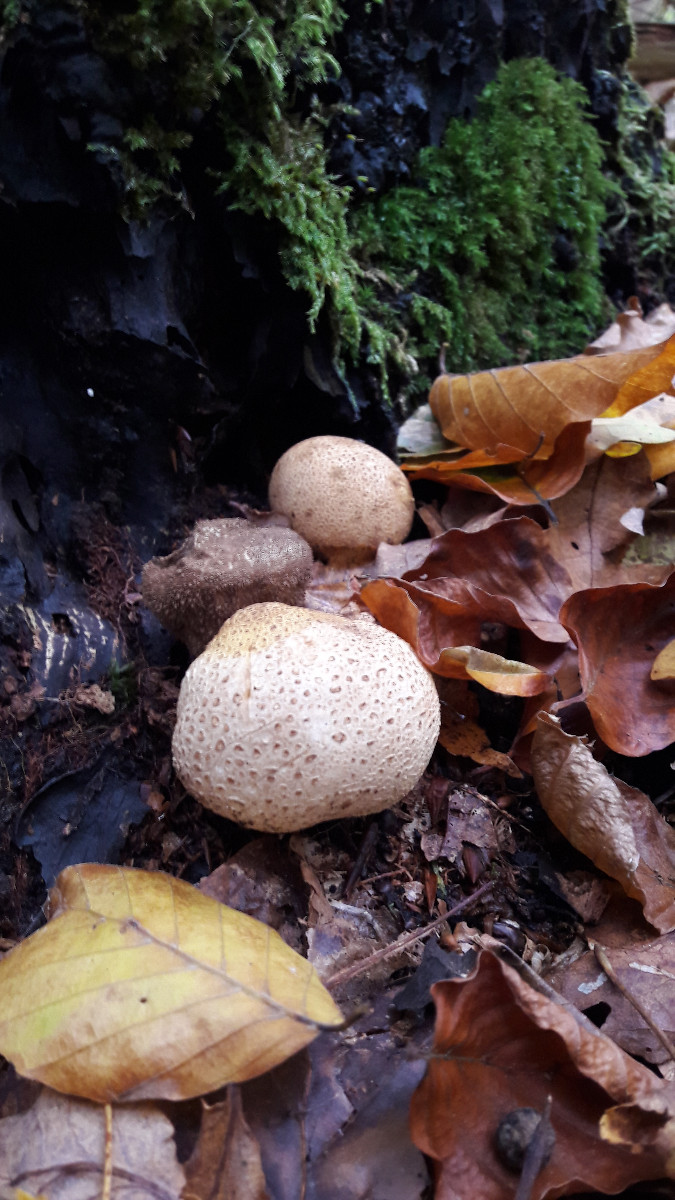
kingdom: Fungi
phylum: Basidiomycota
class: Agaricomycetes
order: Boletales
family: Sclerodermataceae
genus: Scleroderma
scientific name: Scleroderma citrinum
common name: almindelig bruskbold
